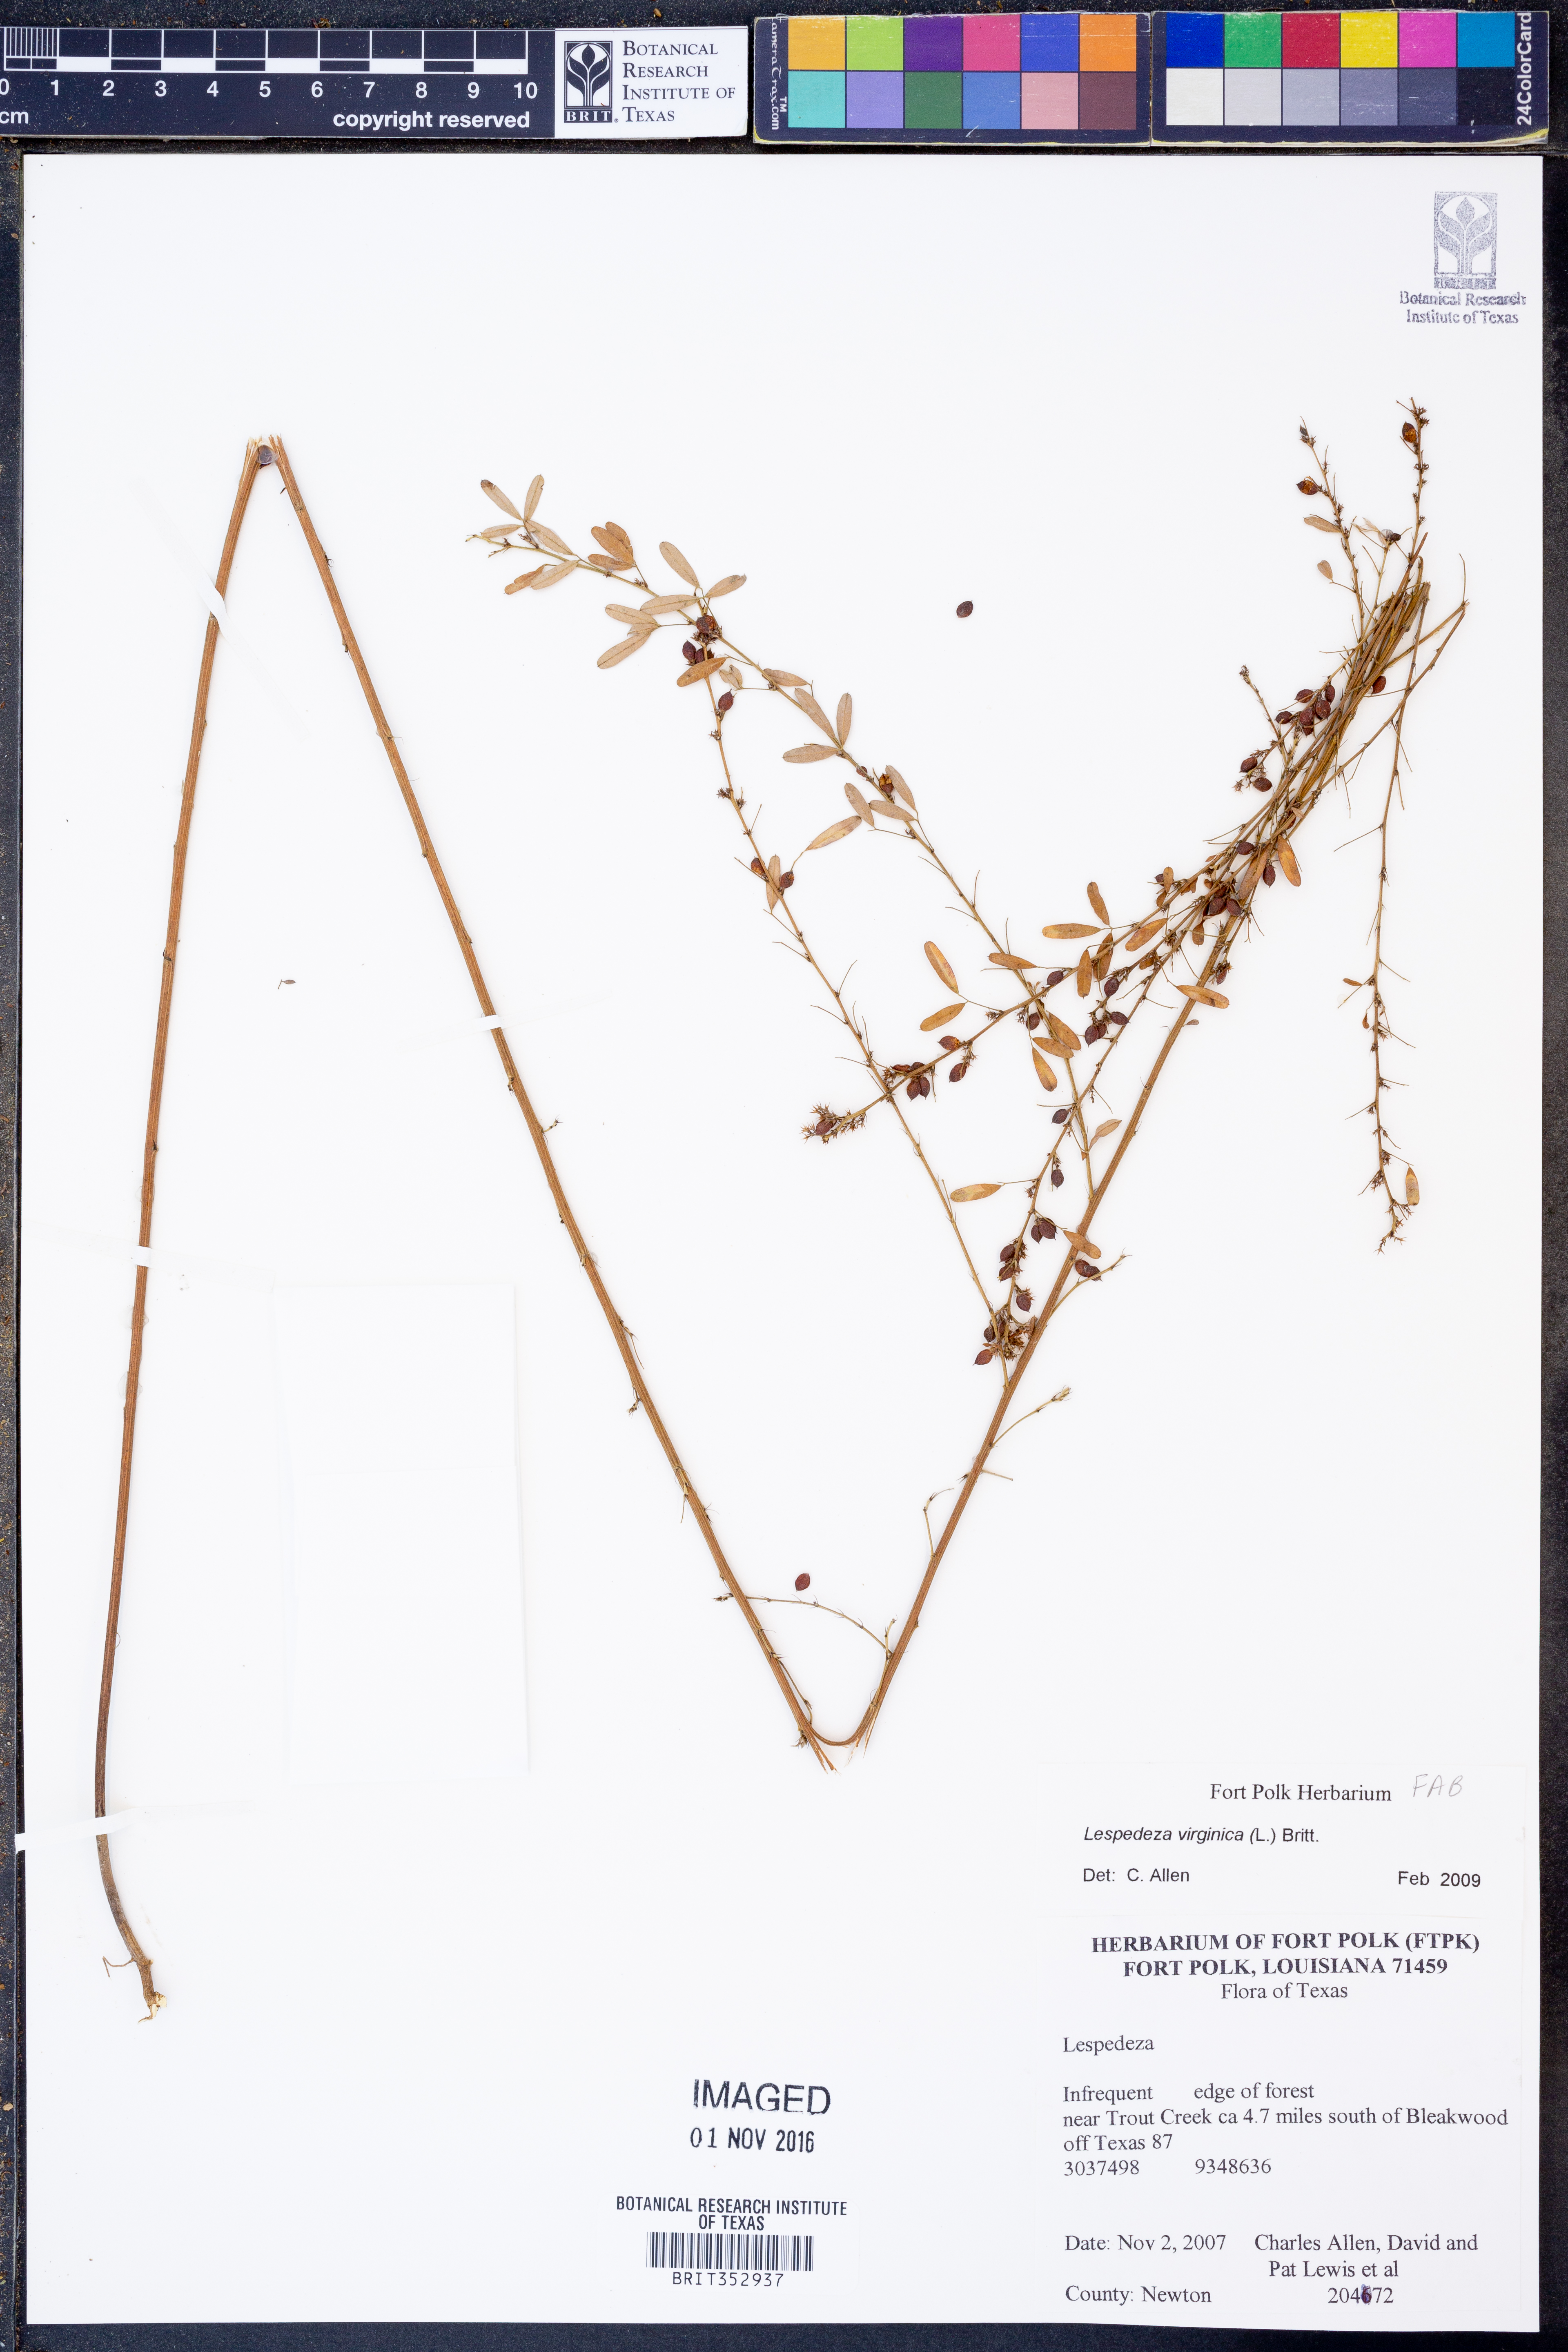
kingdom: Plantae
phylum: Tracheophyta
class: Magnoliopsida
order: Fabales
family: Fabaceae
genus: Lespedeza
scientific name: Lespedeza virginica
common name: Slender bush-clover
